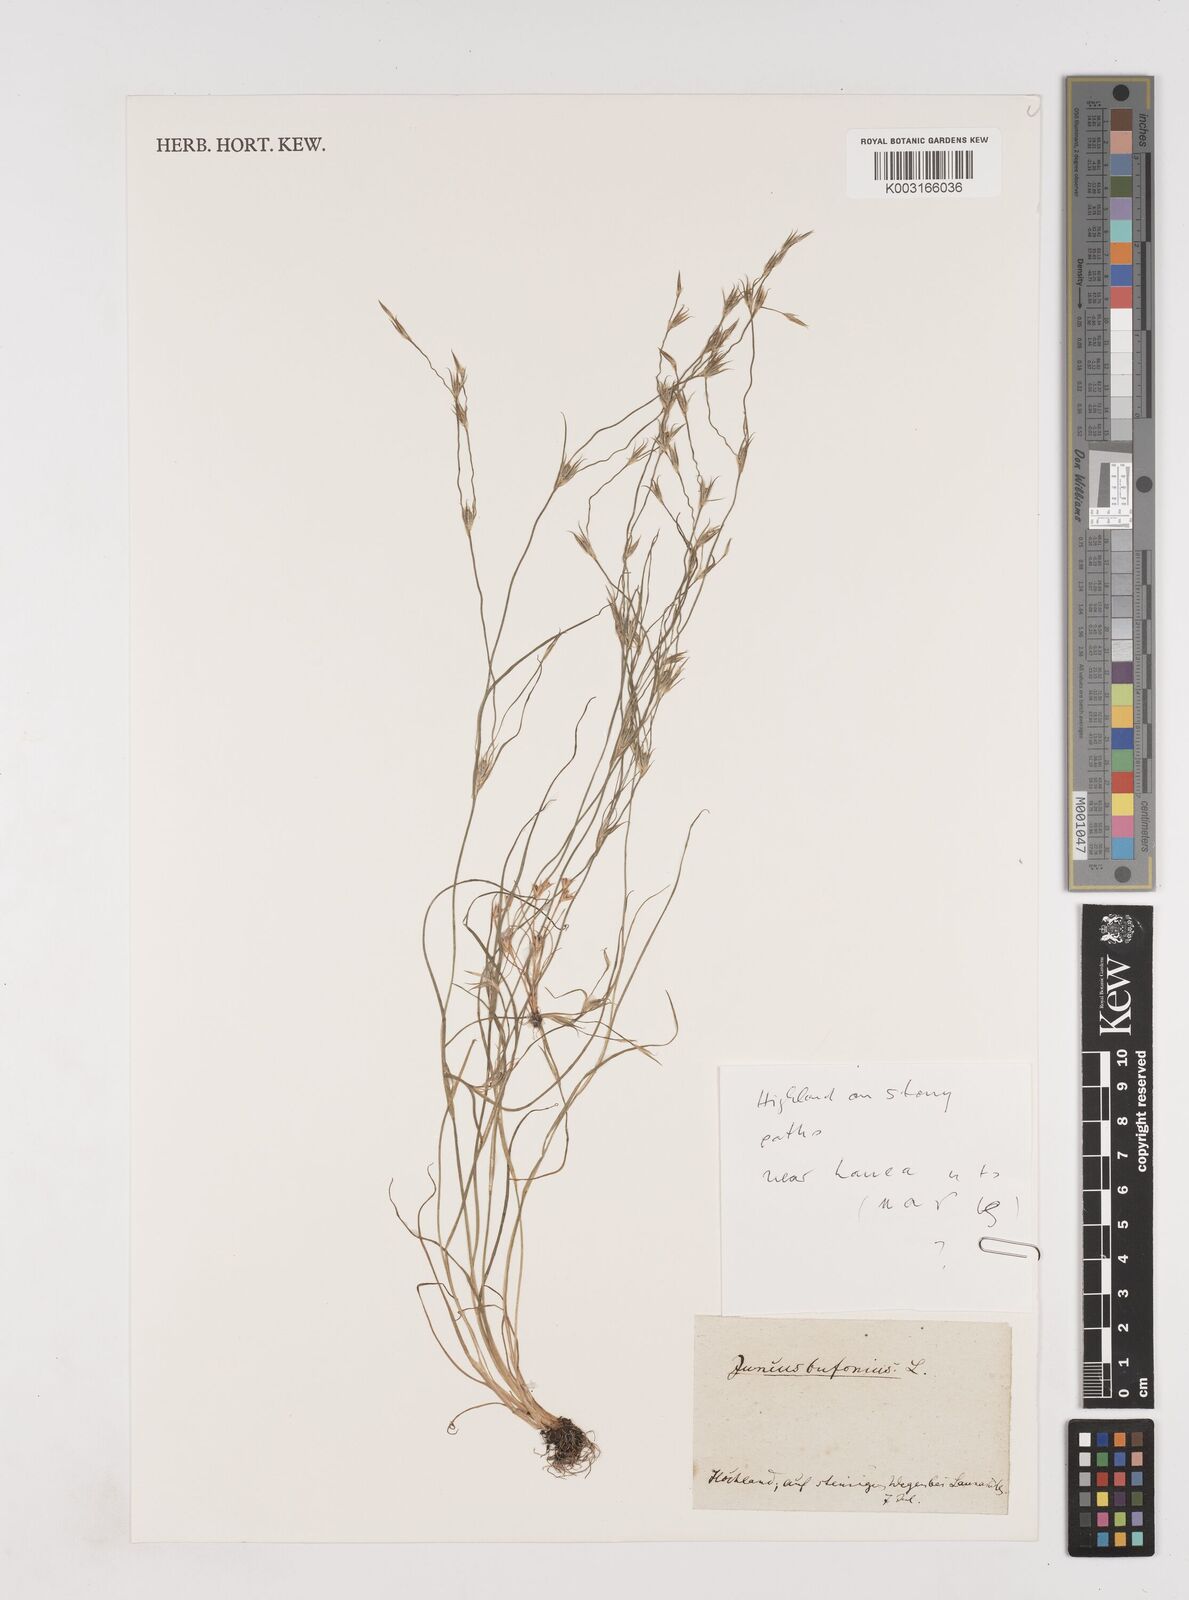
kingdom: Plantae
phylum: Tracheophyta
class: Liliopsida
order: Poales
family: Juncaceae
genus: Juncus
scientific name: Juncus bufonius
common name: Toad rush
